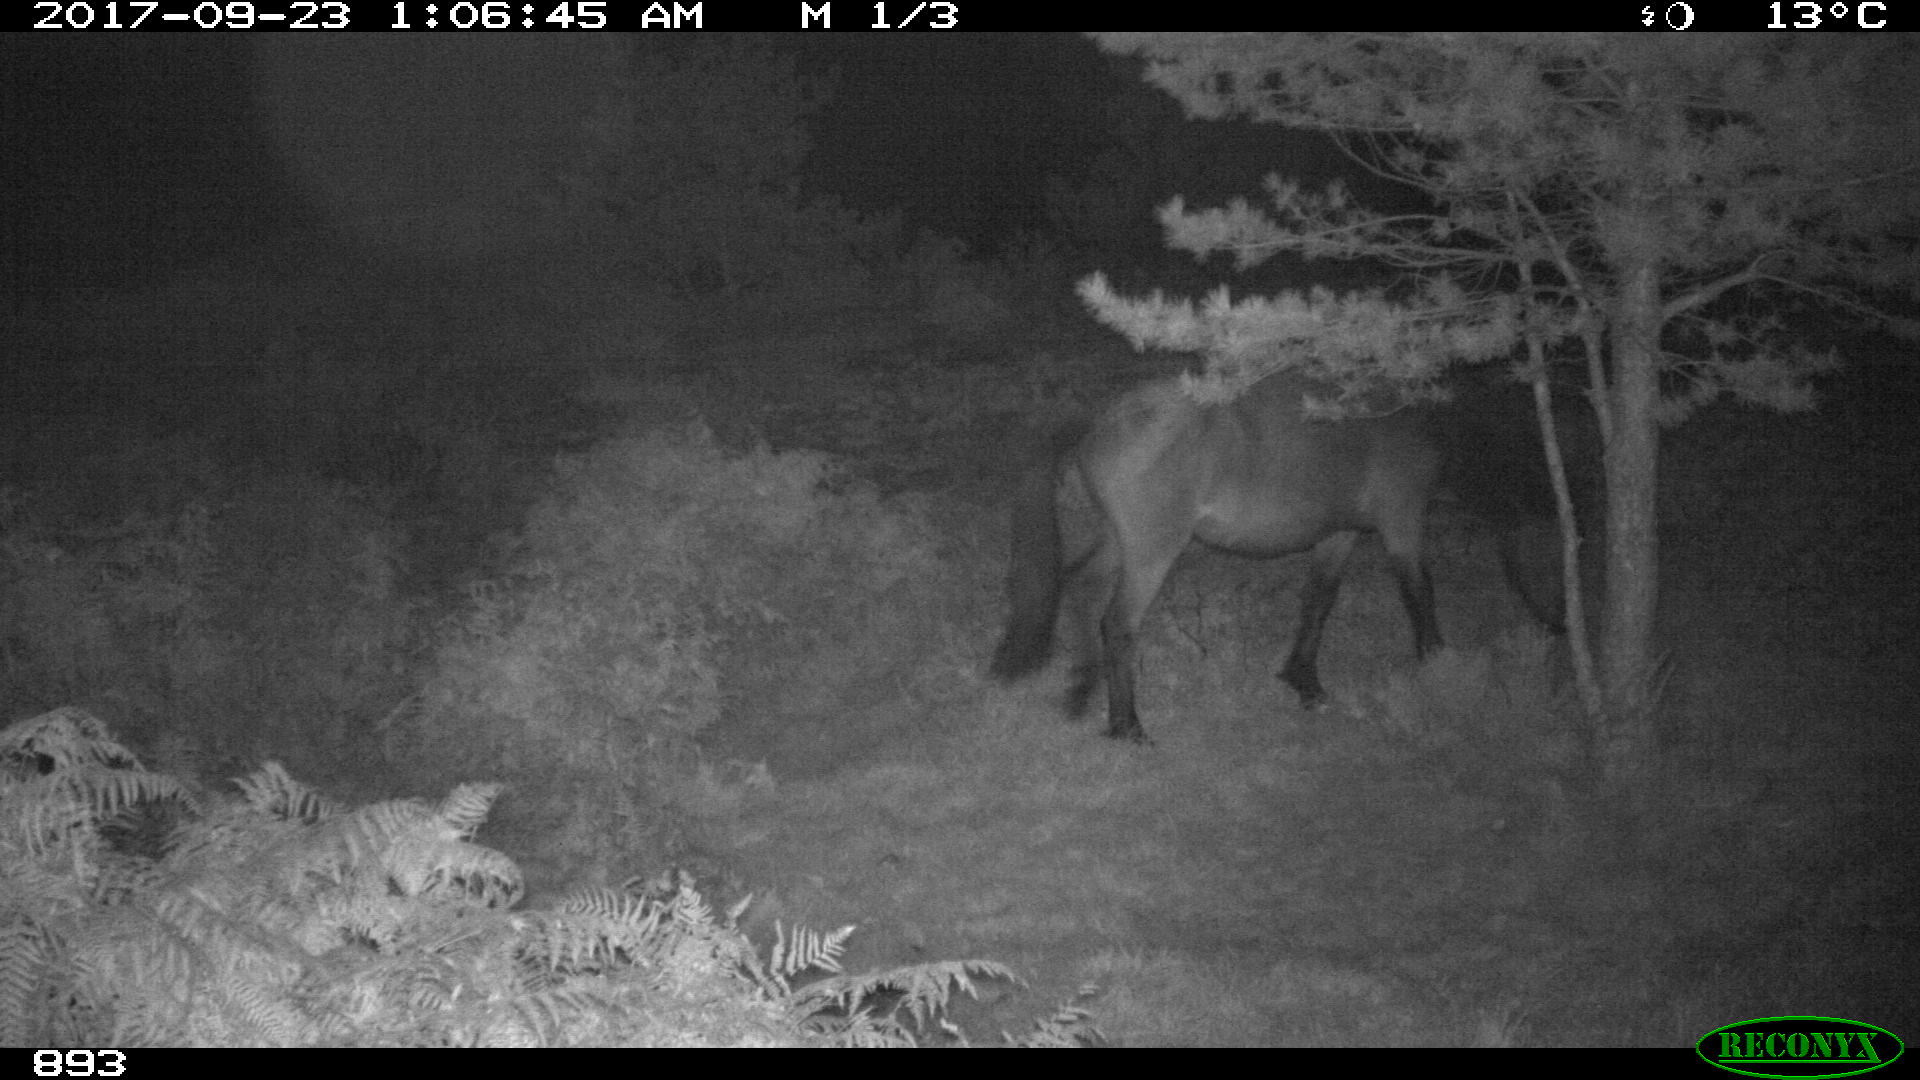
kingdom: Animalia
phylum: Chordata
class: Mammalia
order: Perissodactyla
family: Equidae
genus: Equus
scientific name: Equus caballus
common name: Horse
